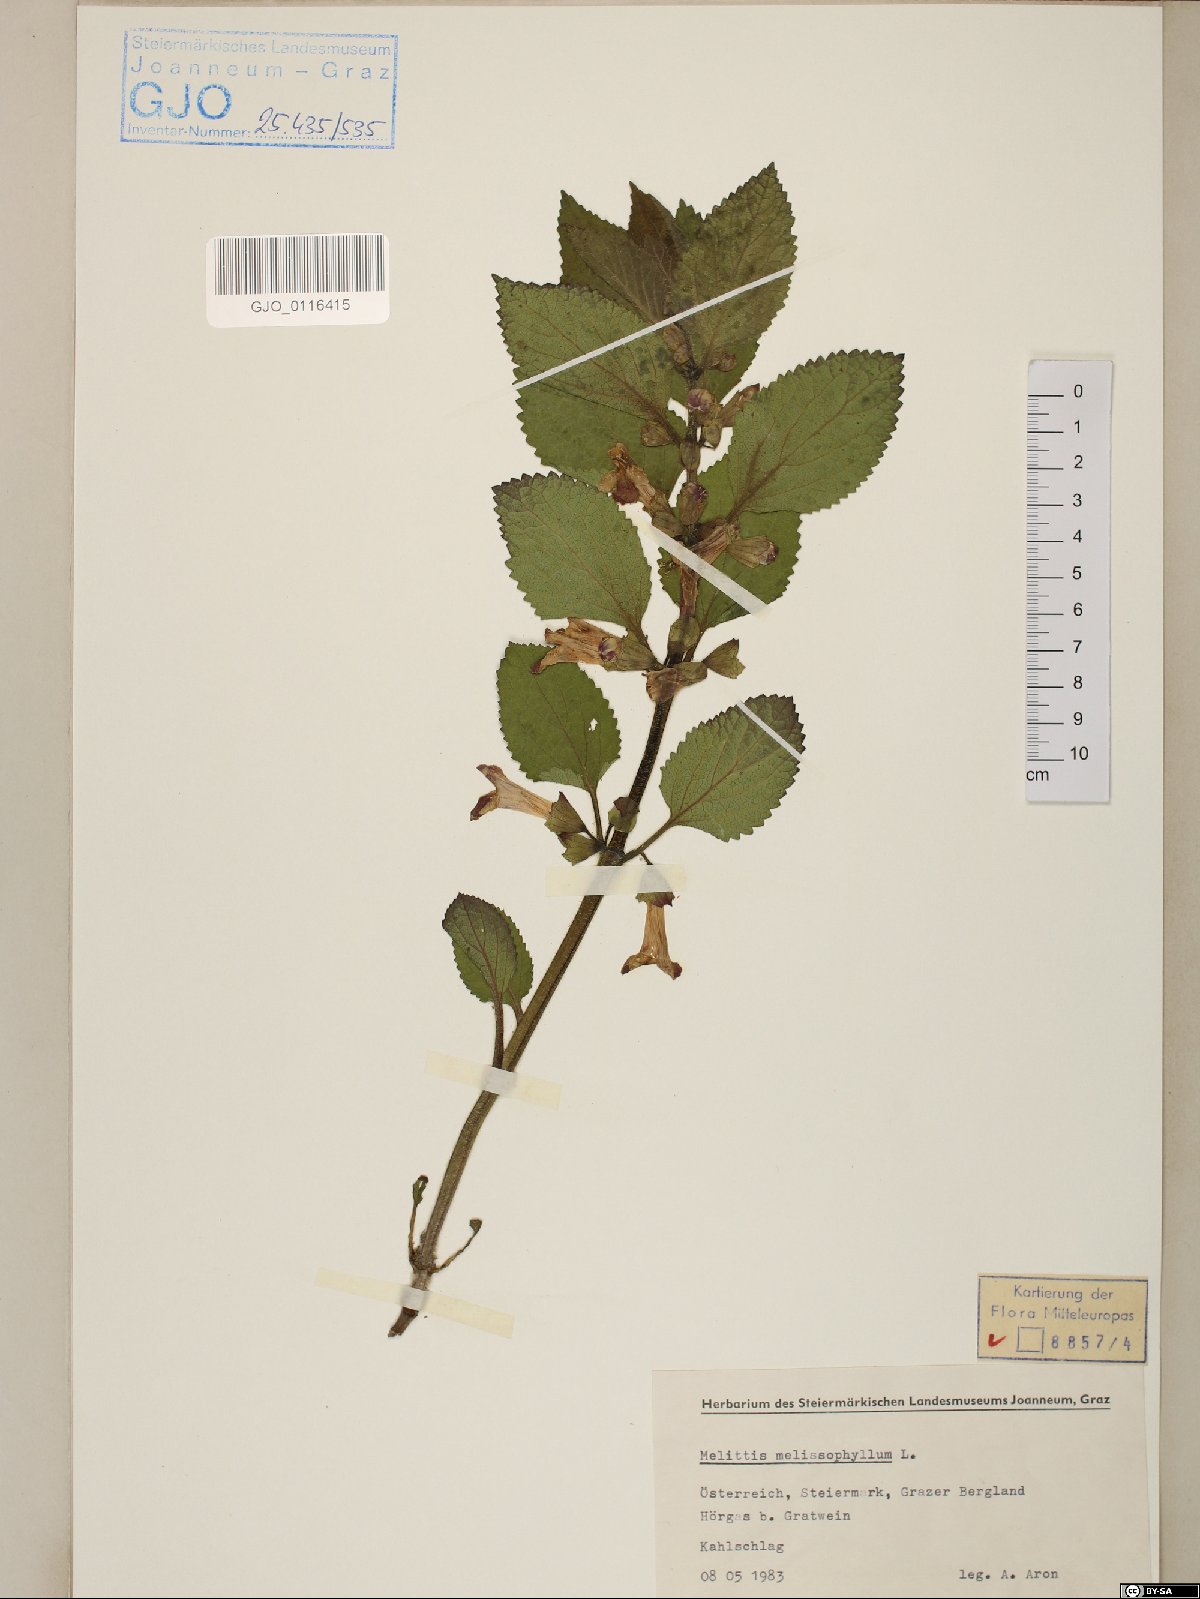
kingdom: Plantae
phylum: Tracheophyta
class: Magnoliopsida
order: Lamiales
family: Lamiaceae
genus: Melittis
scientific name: Melittis melissophyllum
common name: Bastard balm
